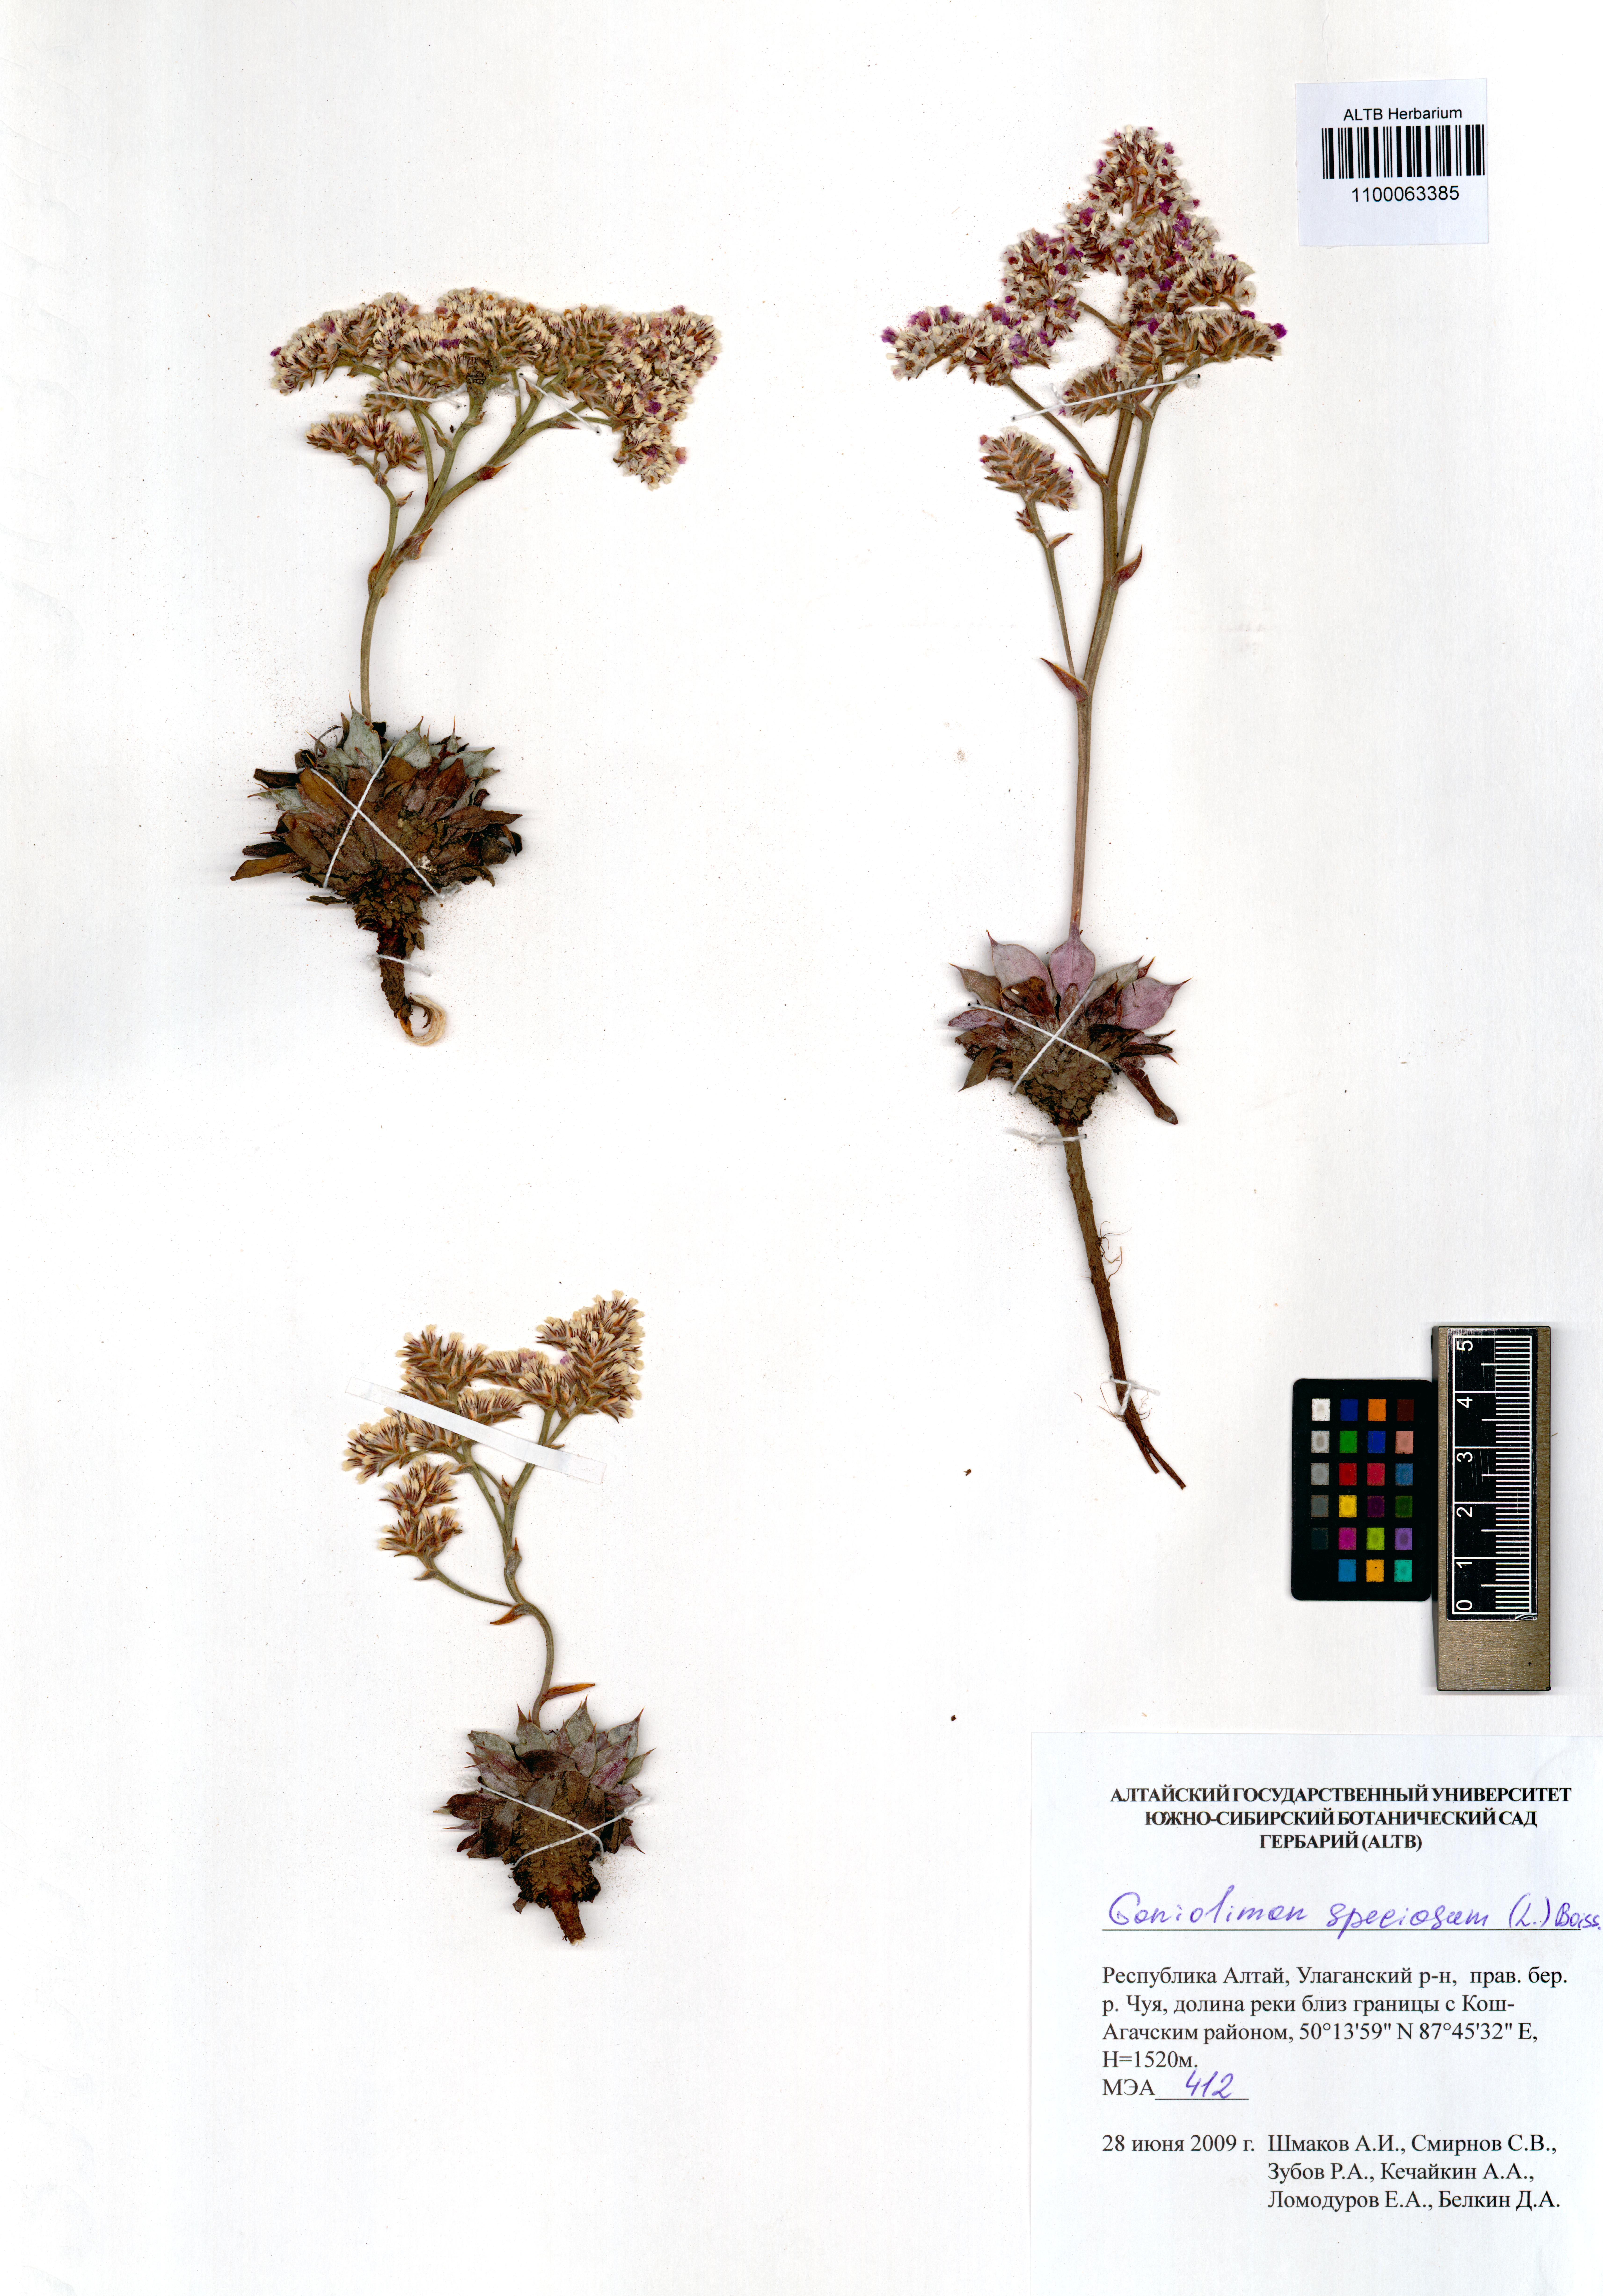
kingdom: Plantae
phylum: Tracheophyta
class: Magnoliopsida
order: Caryophyllales
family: Plumbaginaceae
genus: Goniolimon
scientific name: Goniolimon speciosum
